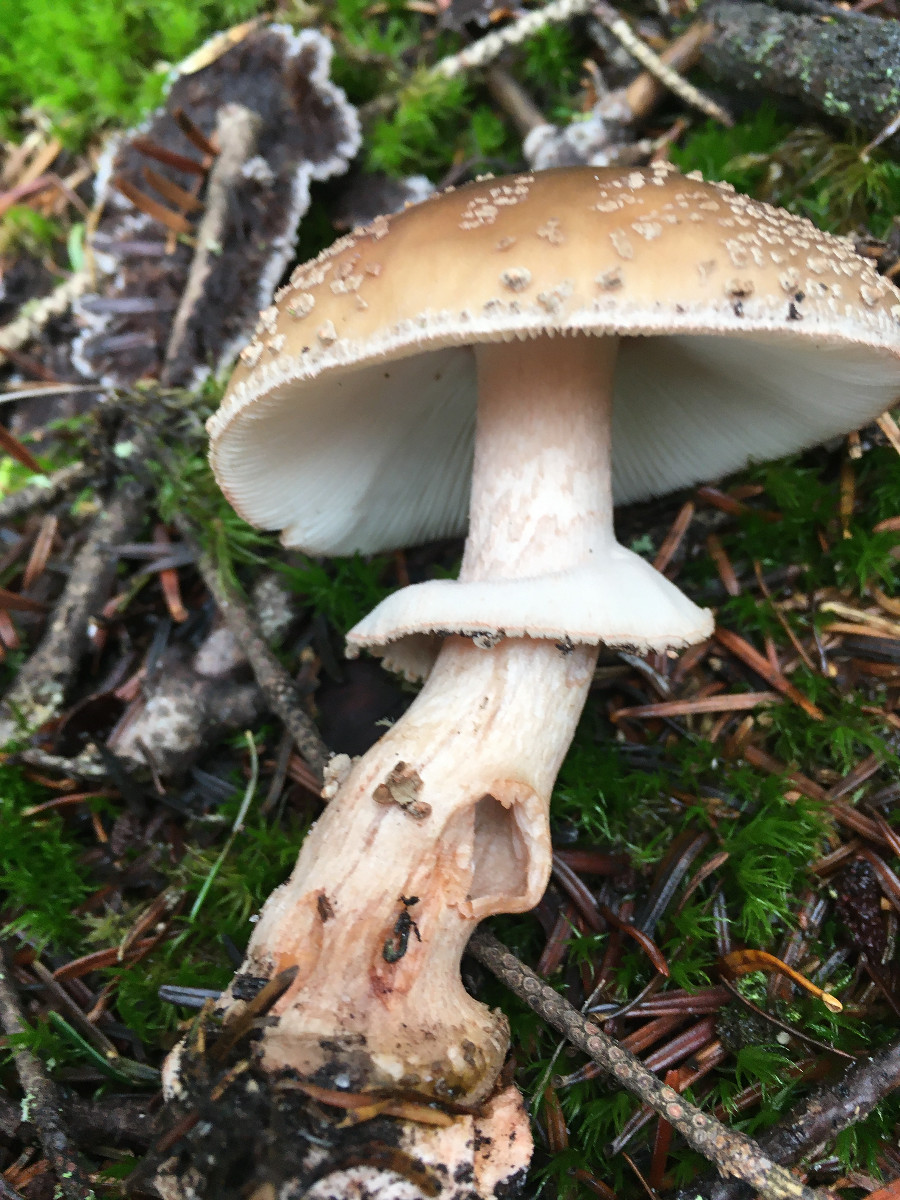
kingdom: Fungi
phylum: Basidiomycota
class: Agaricomycetes
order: Agaricales
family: Amanitaceae
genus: Amanita
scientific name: Amanita rubescens
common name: rødmende fluesvamp
